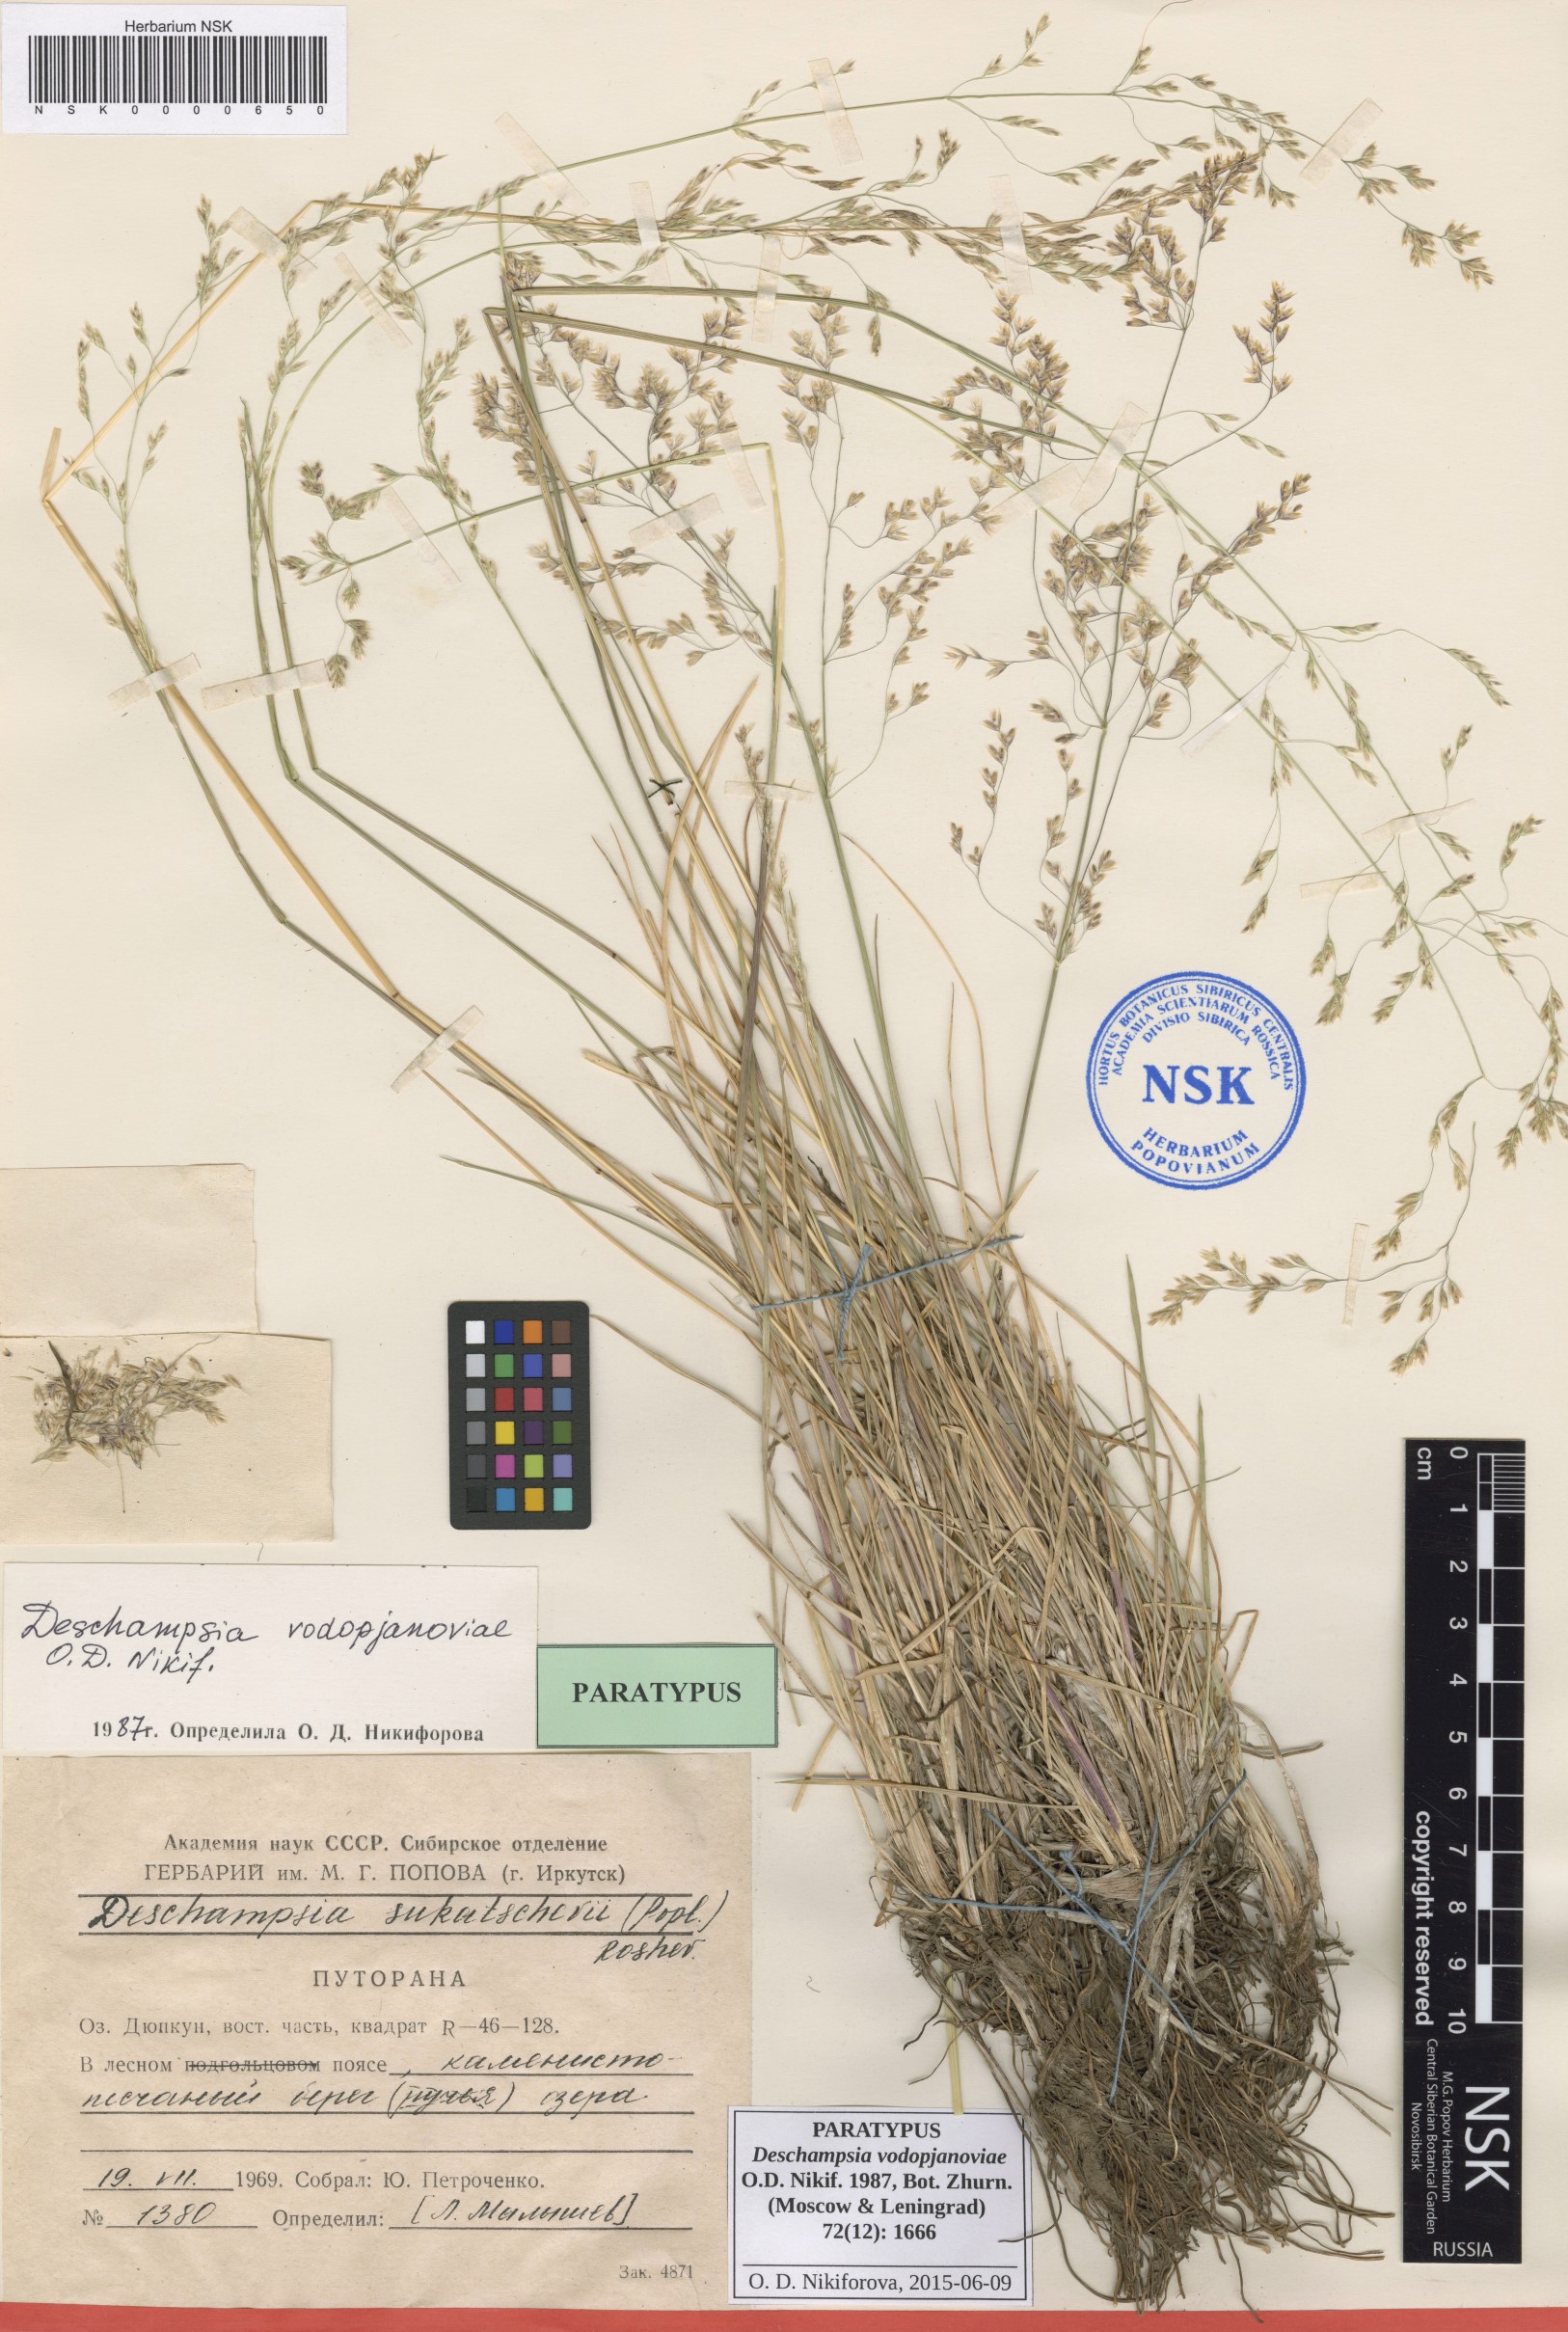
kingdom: Plantae
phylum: Tracheophyta
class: Liliopsida
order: Poales
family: Poaceae
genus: Deschampsia
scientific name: Deschampsia cespitosa
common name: Tufted hair-grass
